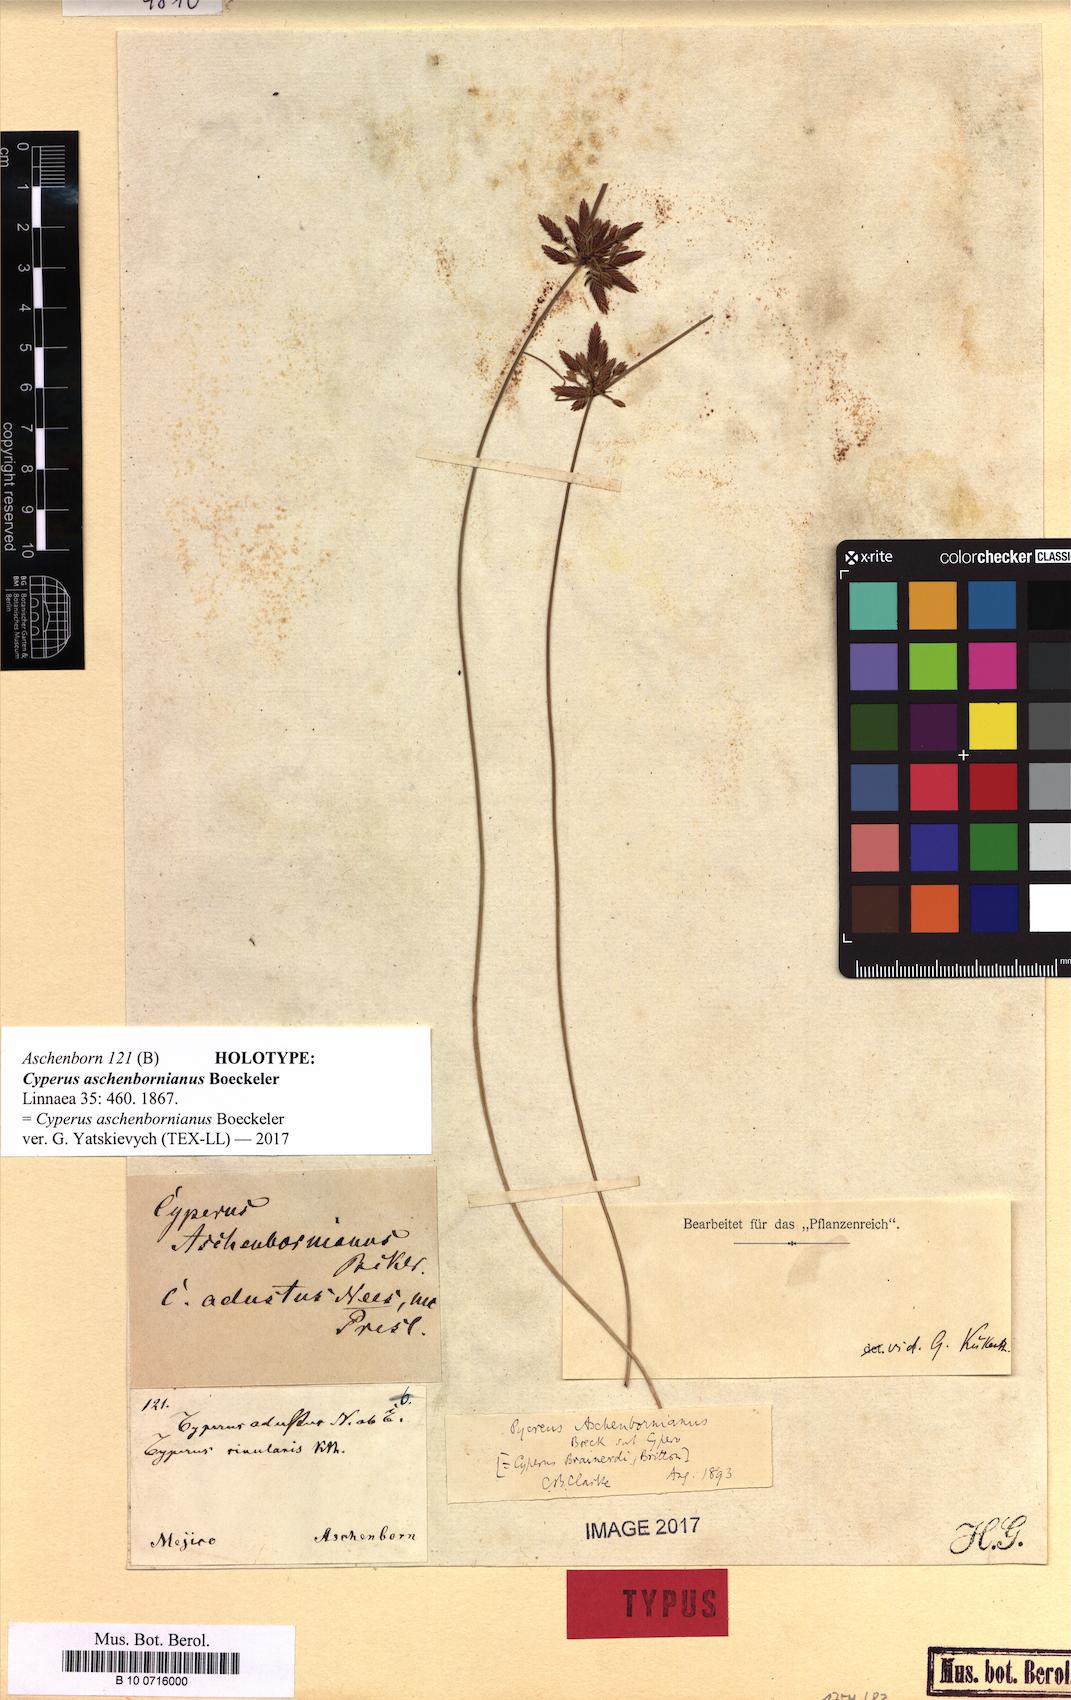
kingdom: Plantae
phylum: Tracheophyta
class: Liliopsida
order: Poales
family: Cyperaceae
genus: Cyperus
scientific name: Cyperus aschenbornianus
